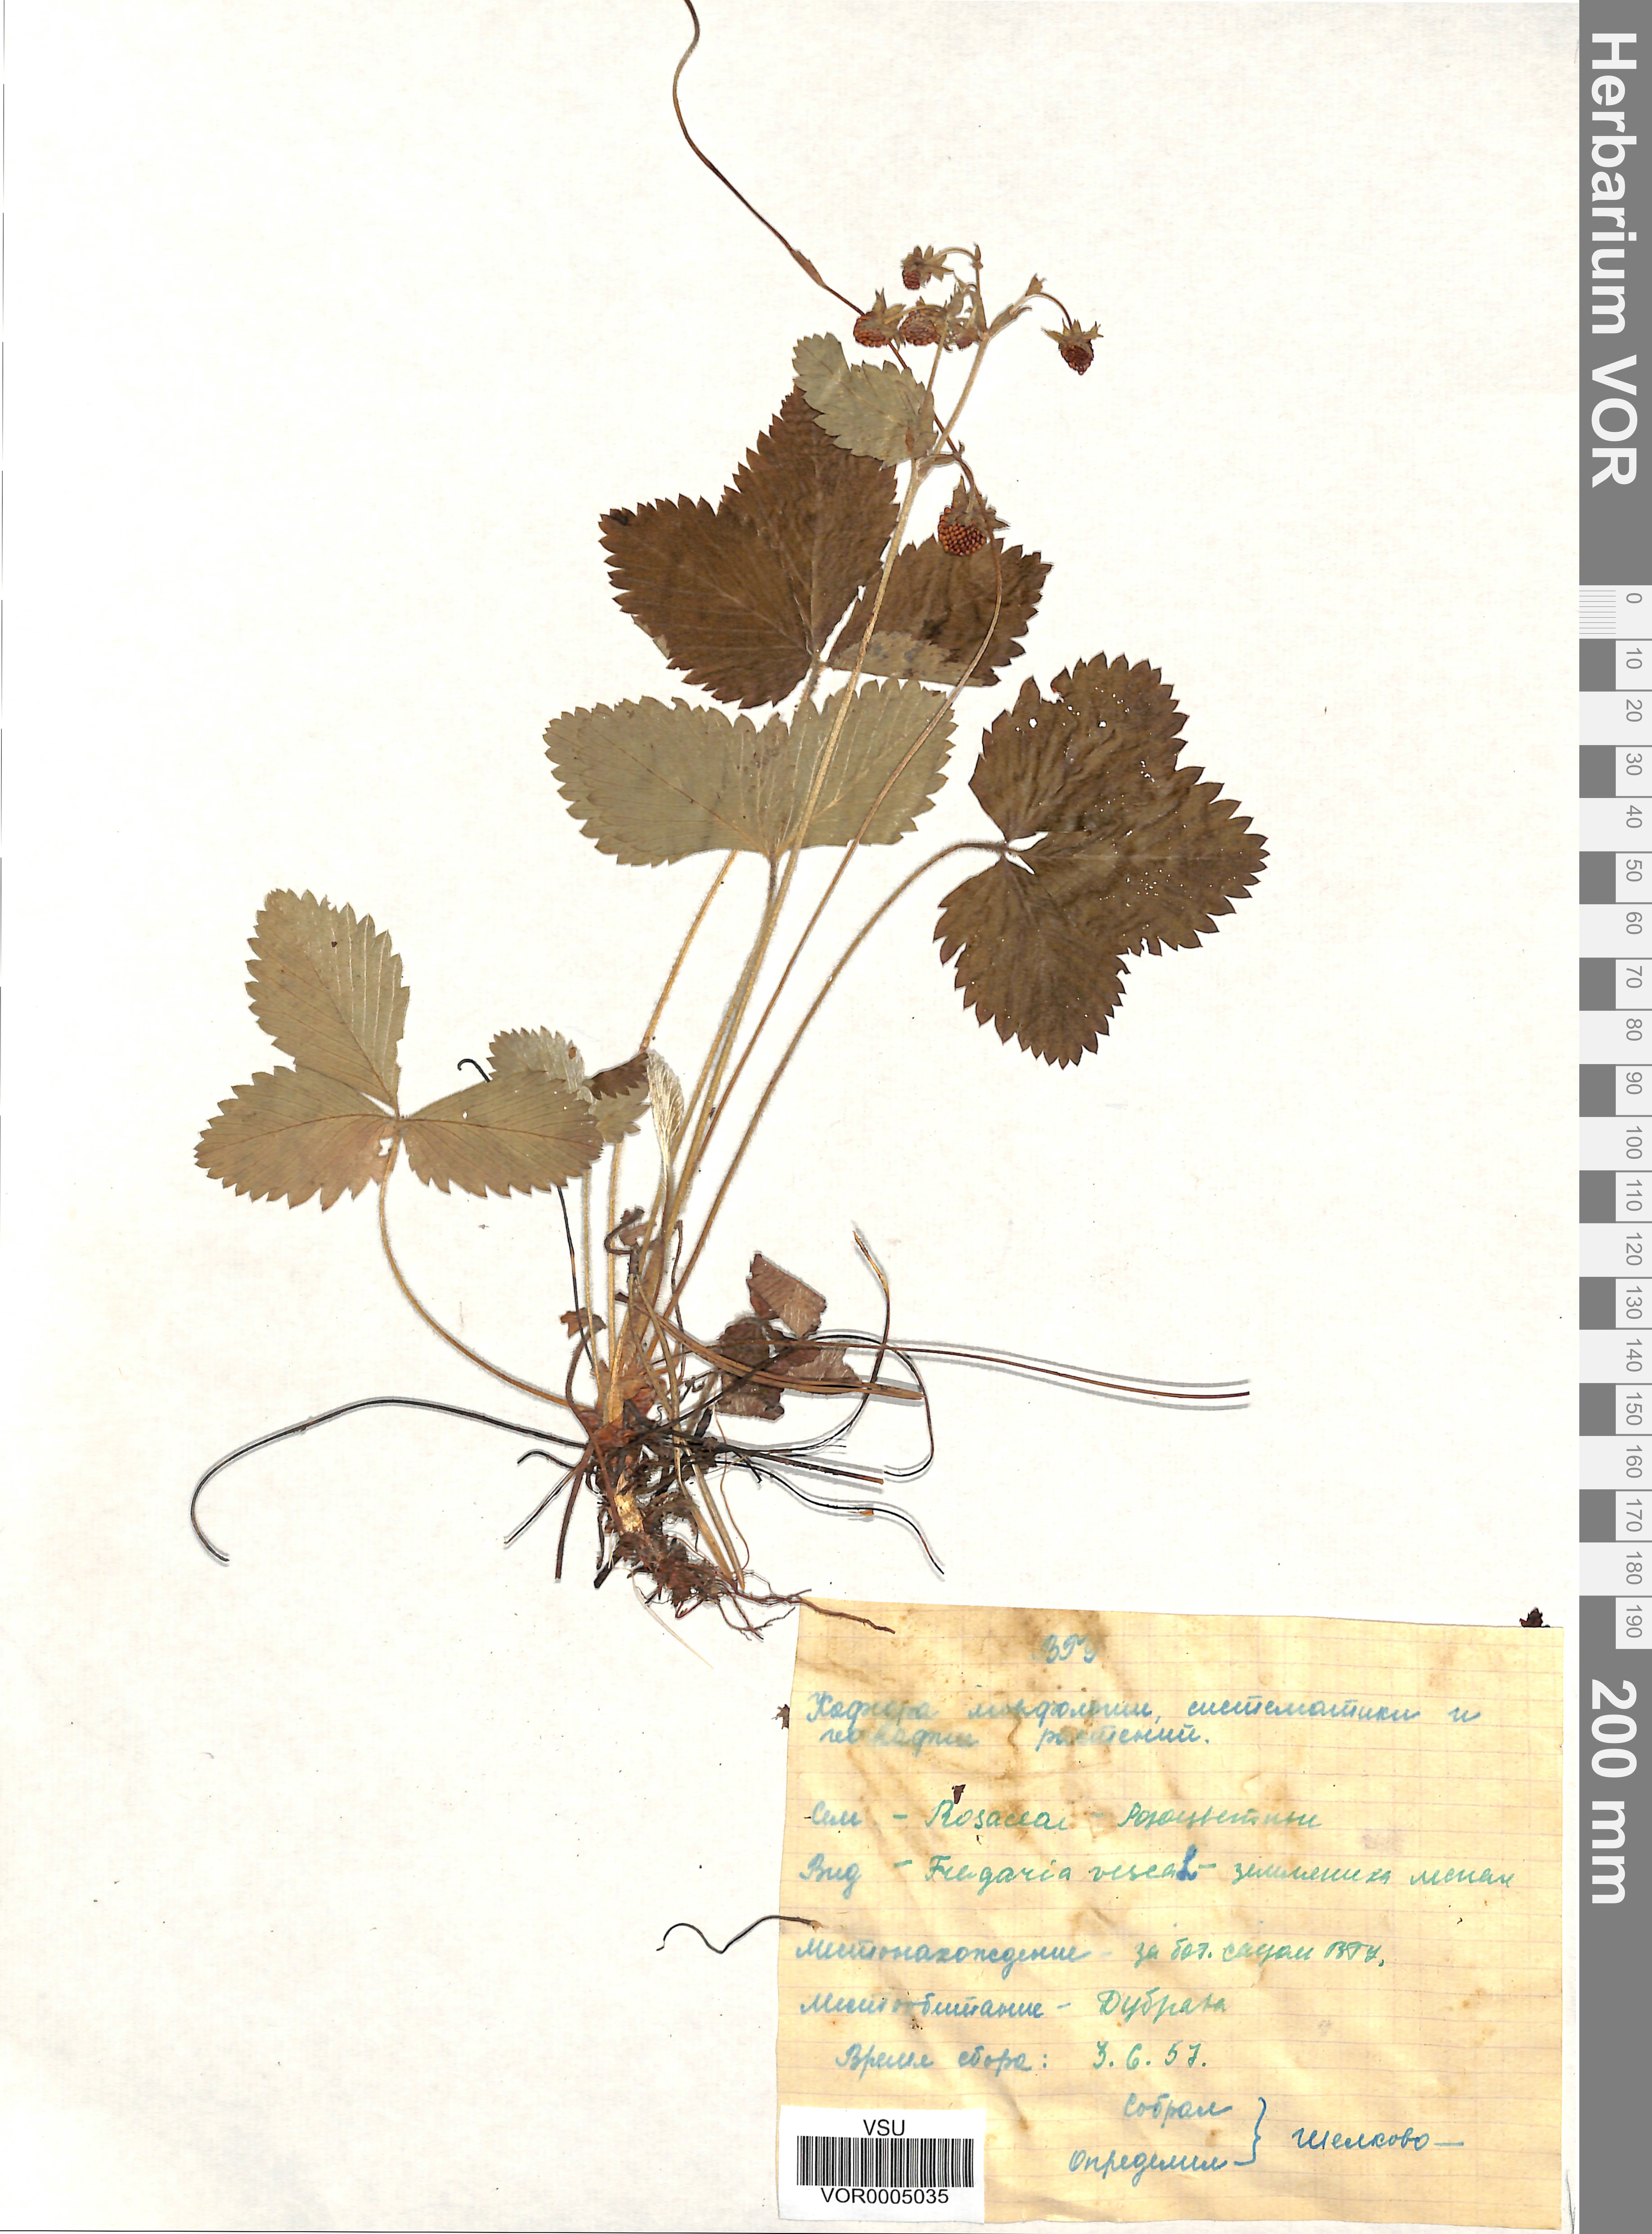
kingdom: Plantae
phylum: Tracheophyta
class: Magnoliopsida
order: Rosales
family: Rosaceae
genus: Fragaria
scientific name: Fragaria vesca
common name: Wild strawberry
